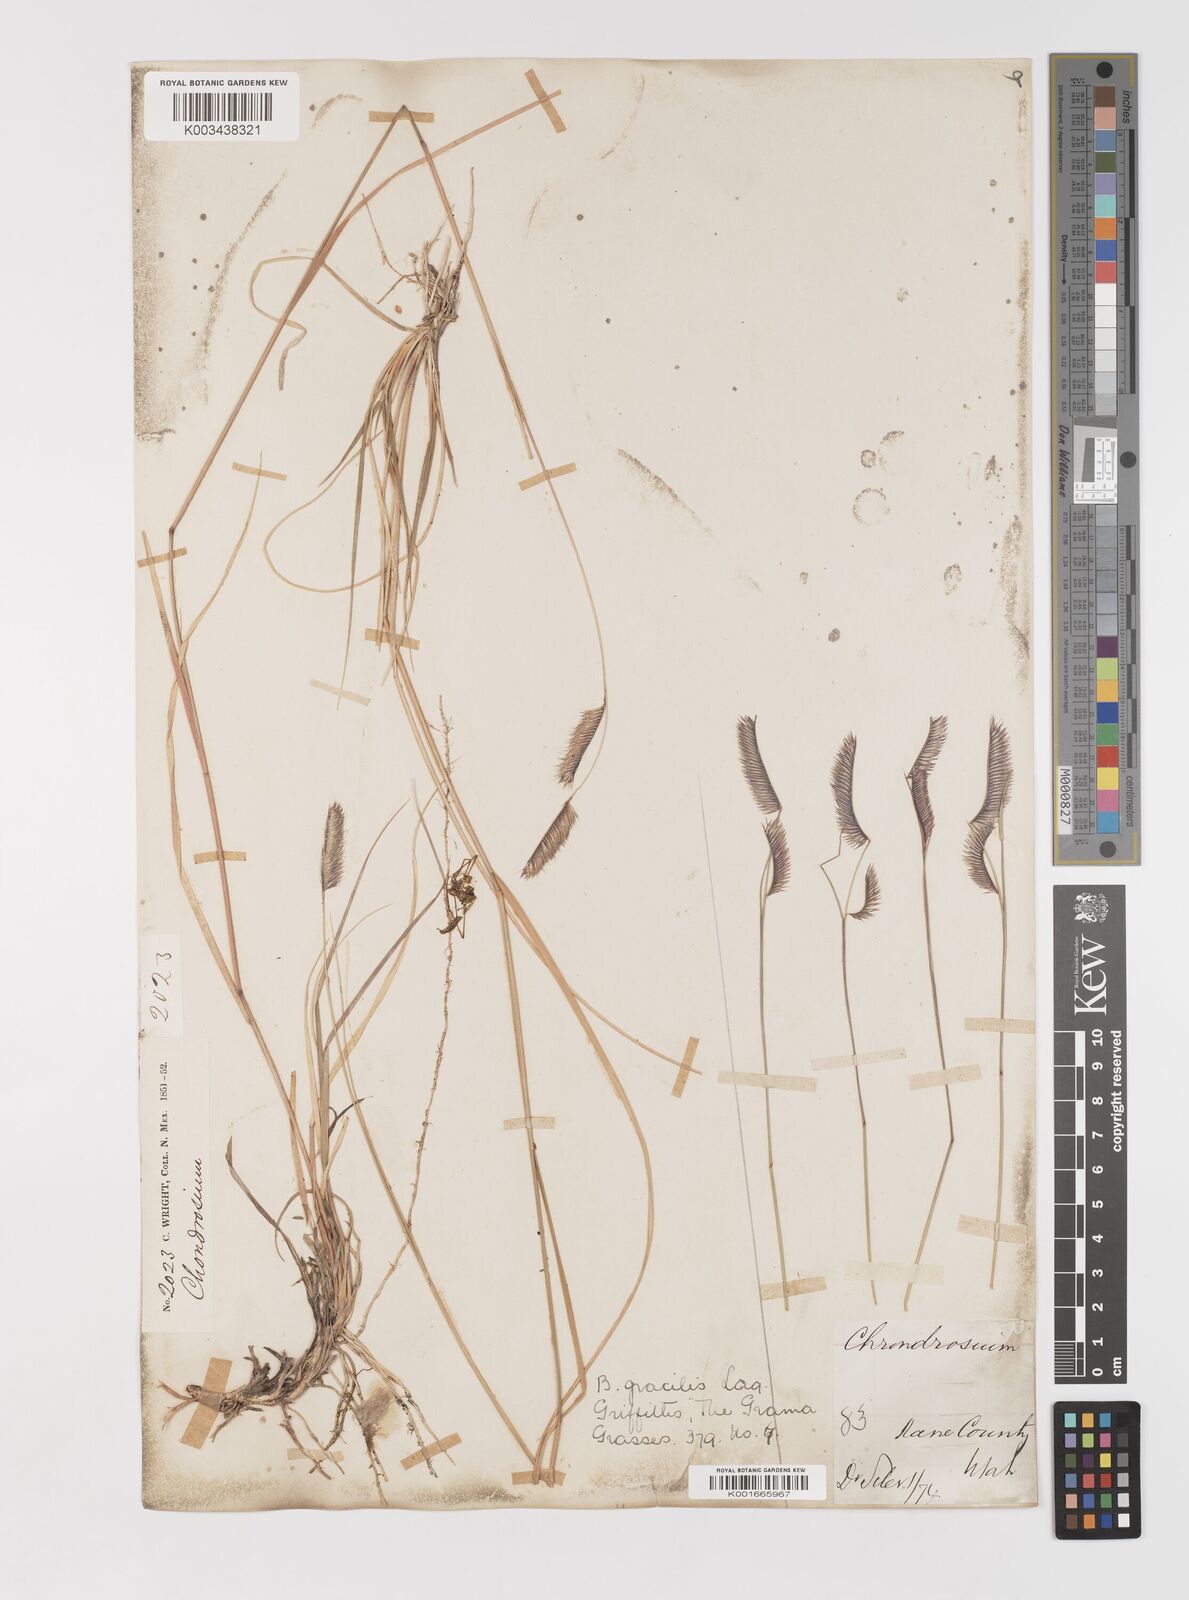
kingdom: Plantae
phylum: Tracheophyta
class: Liliopsida
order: Poales
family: Poaceae
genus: Bouteloua
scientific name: Bouteloua
